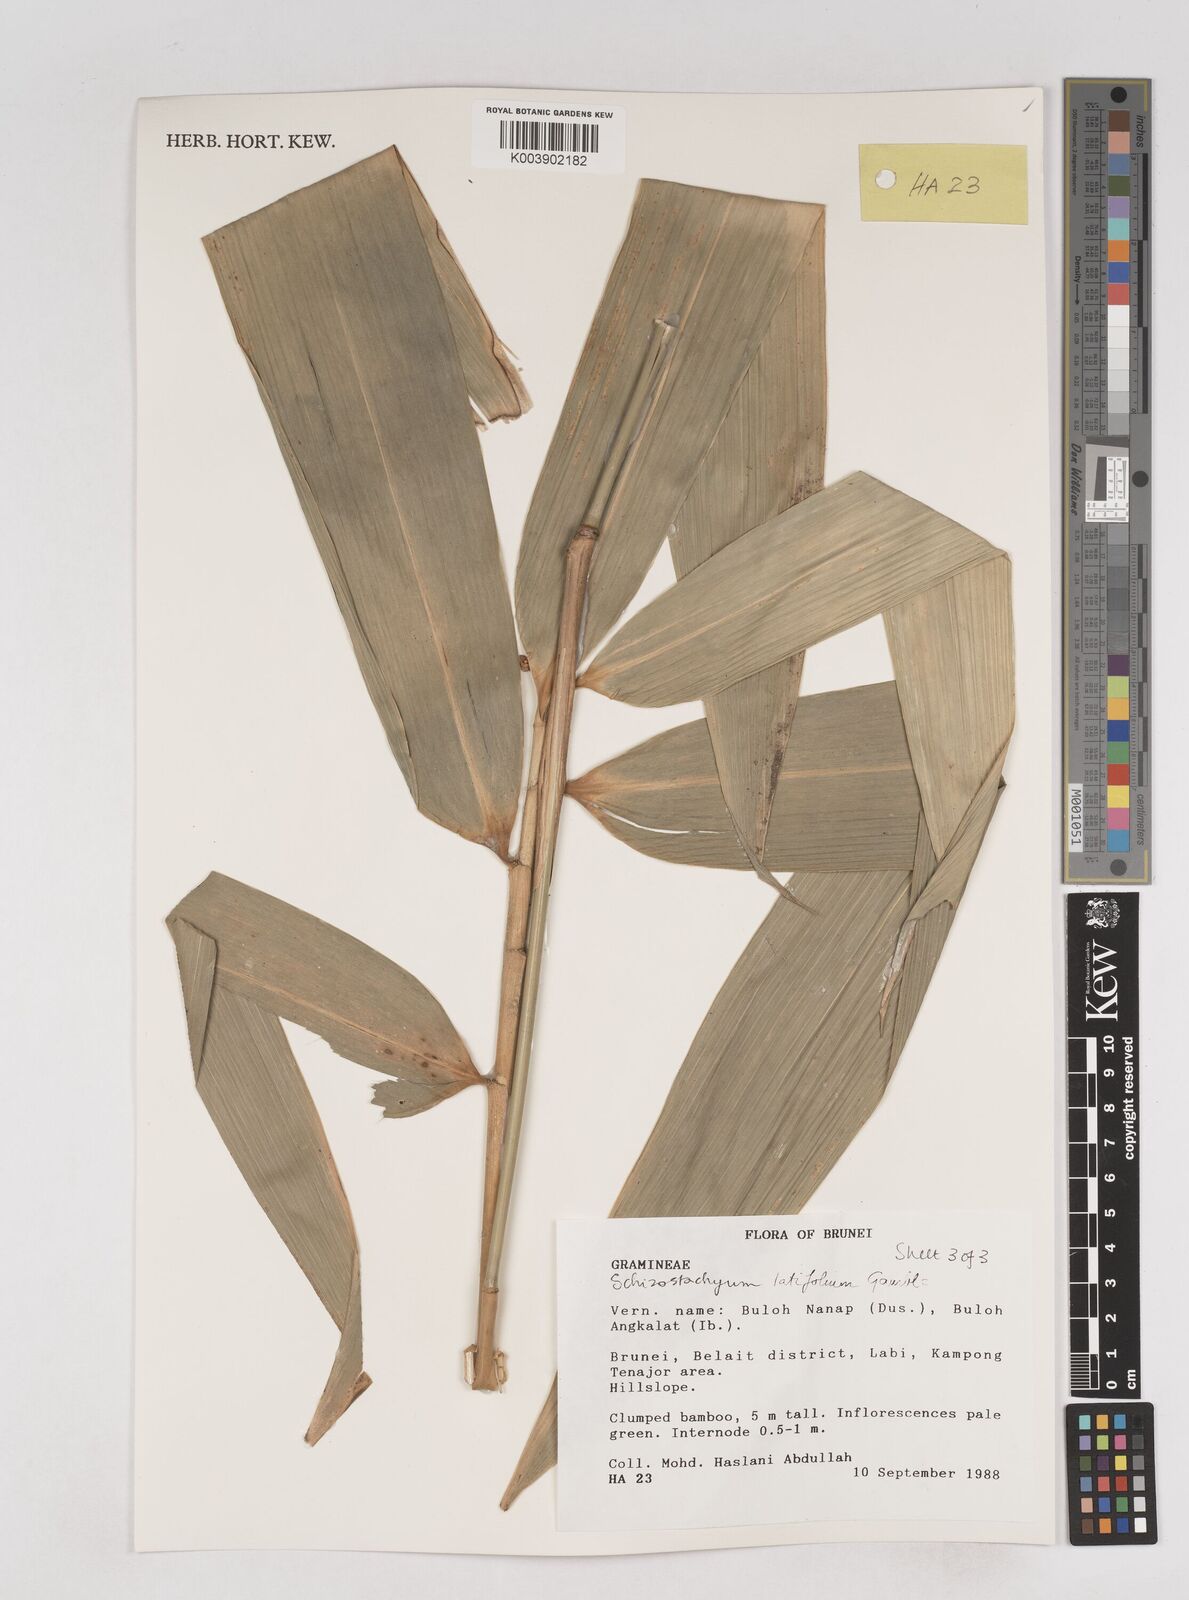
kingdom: Plantae
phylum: Tracheophyta
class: Liliopsida
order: Poales
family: Poaceae
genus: Schizostachyum
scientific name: Schizostachyum
